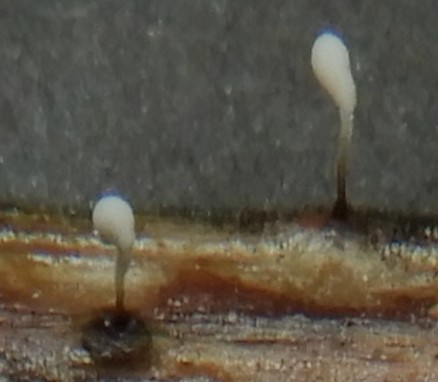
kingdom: Fungi
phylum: Basidiomycota
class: Agaricomycetes
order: Agaricales
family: Typhulaceae
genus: Typhula
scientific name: Typhula
